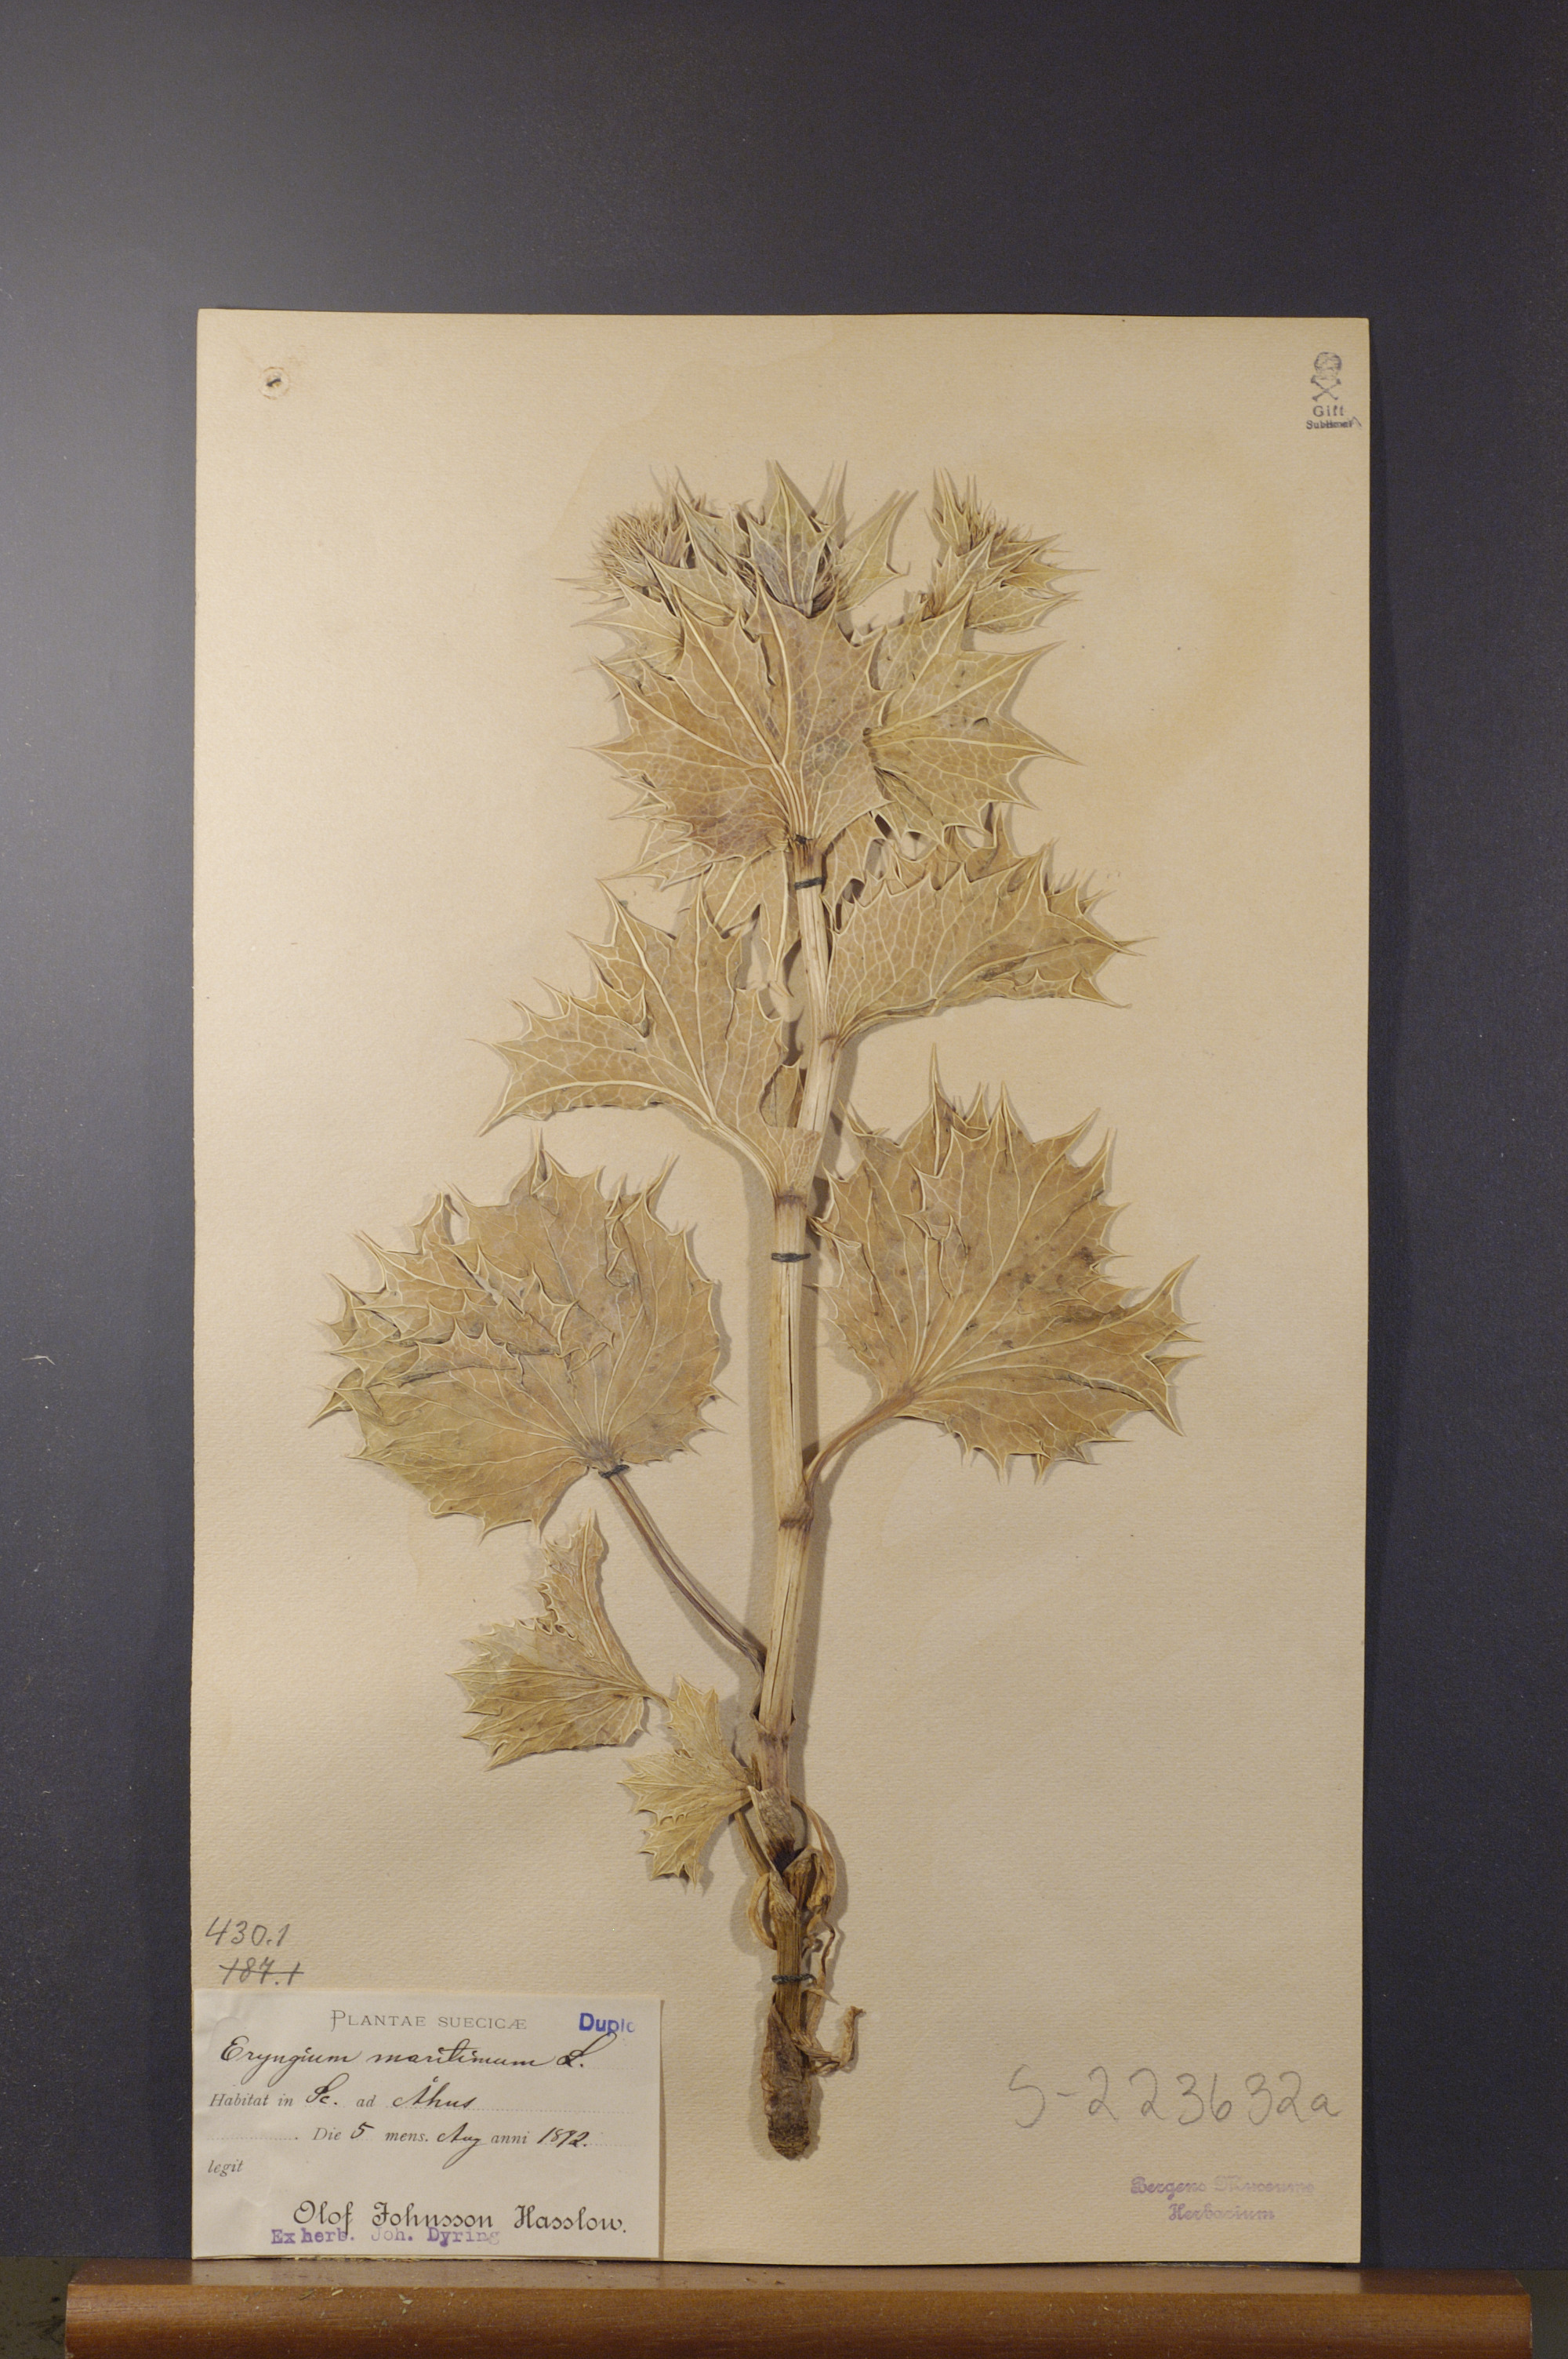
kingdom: Plantae
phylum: Tracheophyta
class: Magnoliopsida
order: Apiales
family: Apiaceae
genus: Eryngium
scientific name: Eryngium maritimum
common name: Sea-holly
